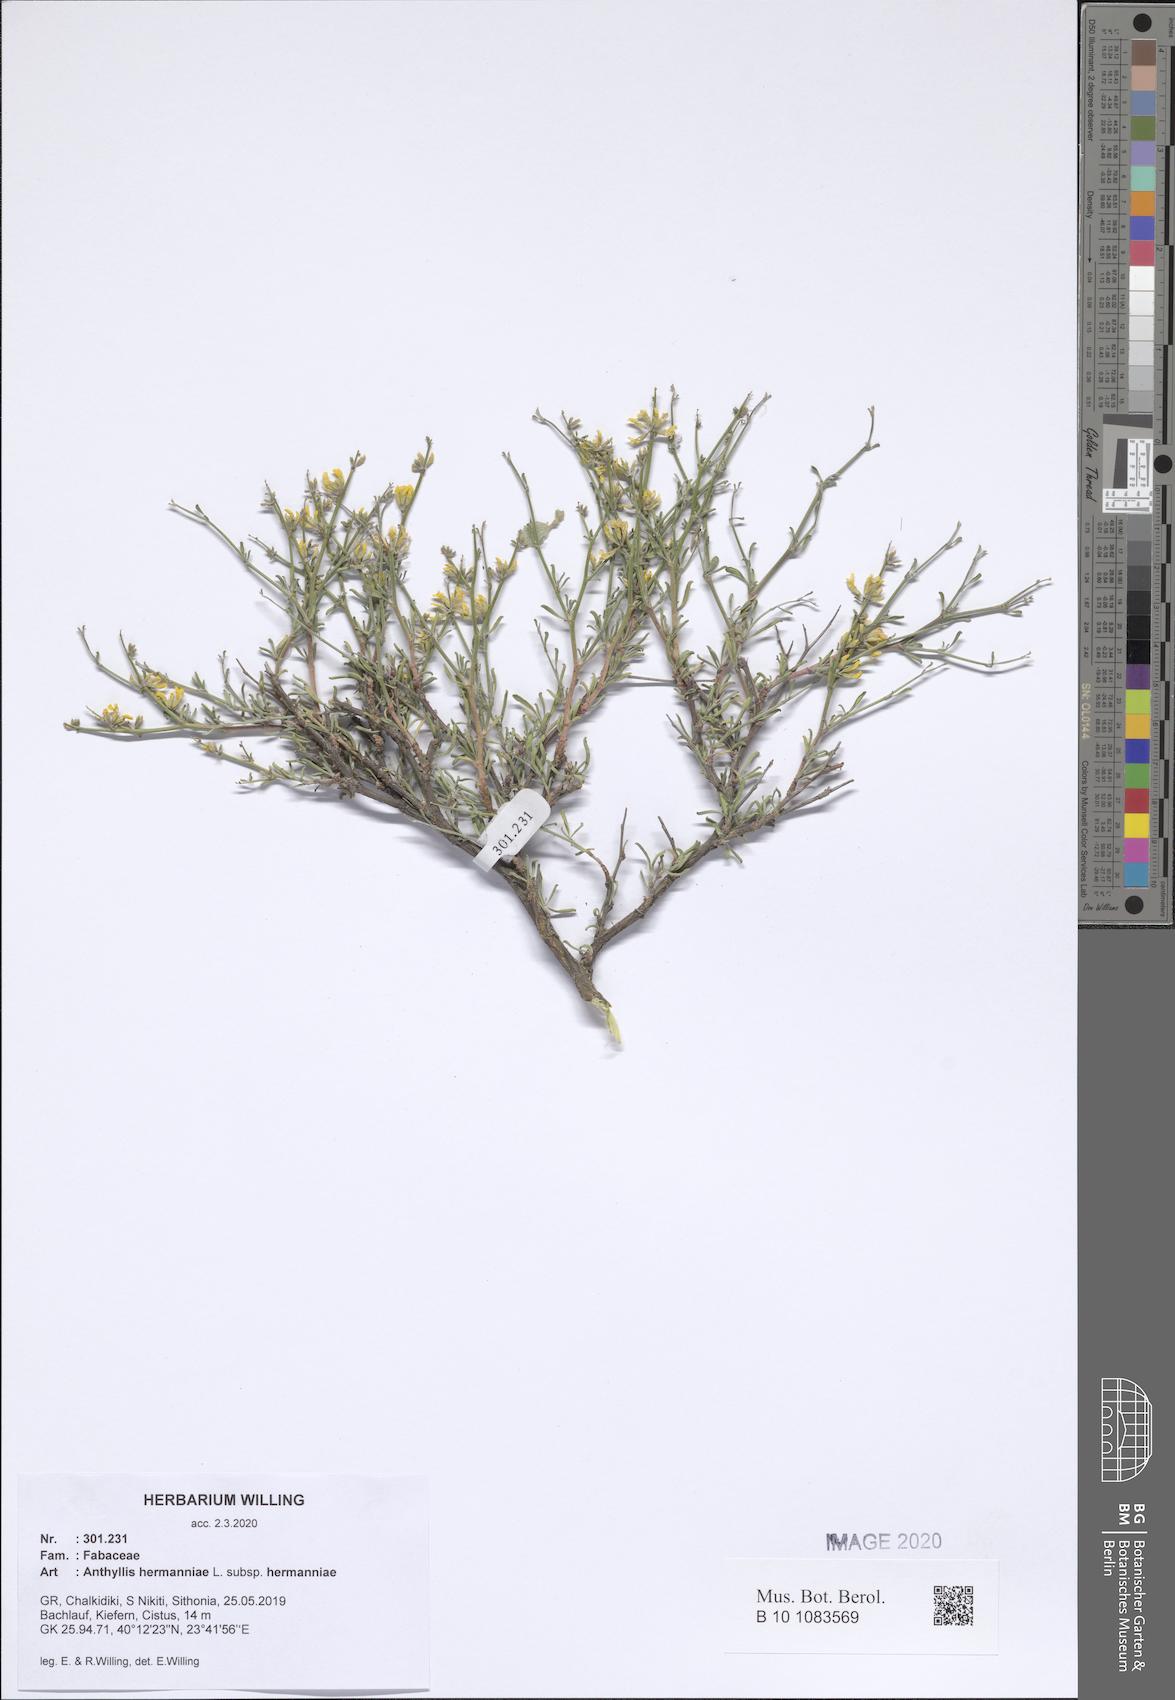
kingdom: Plantae
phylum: Tracheophyta
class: Magnoliopsida
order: Fabales
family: Fabaceae
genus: Anthyllis
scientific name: Anthyllis hermanniae
